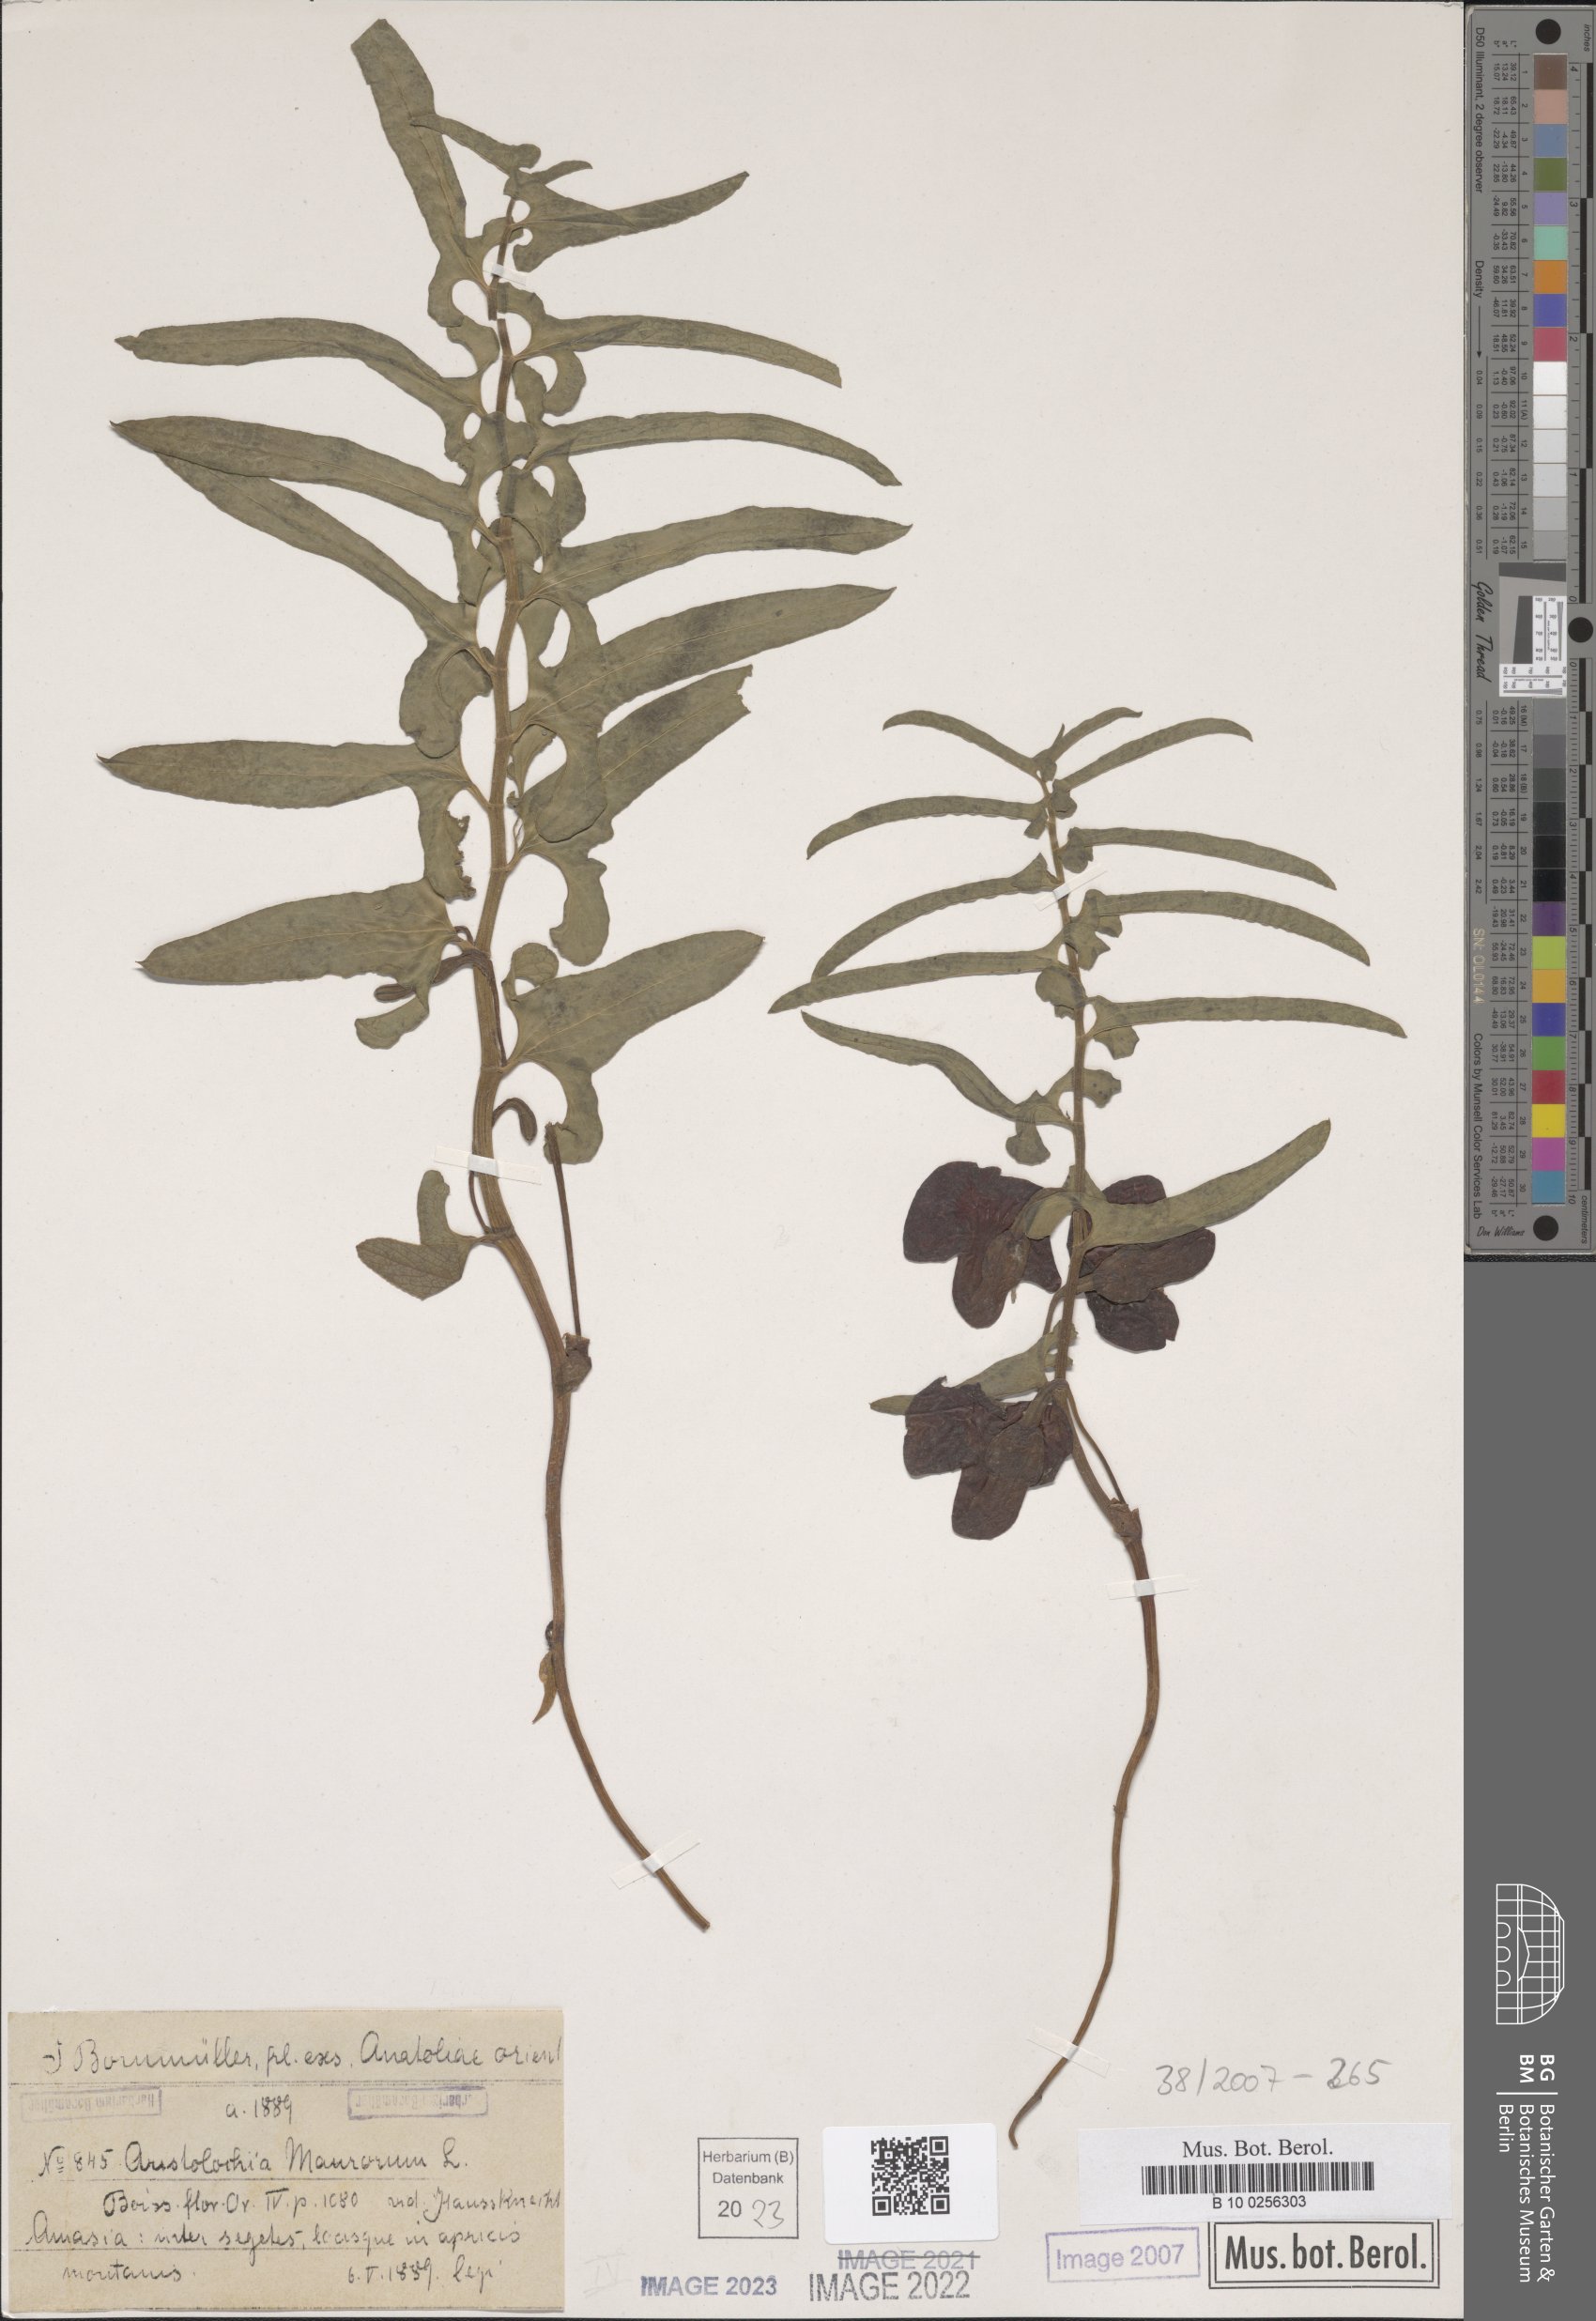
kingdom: Plantae
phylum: Tracheophyta
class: Magnoliopsida
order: Piperales
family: Aristolochiaceae
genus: Aristolochia
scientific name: Aristolochia maurorum
